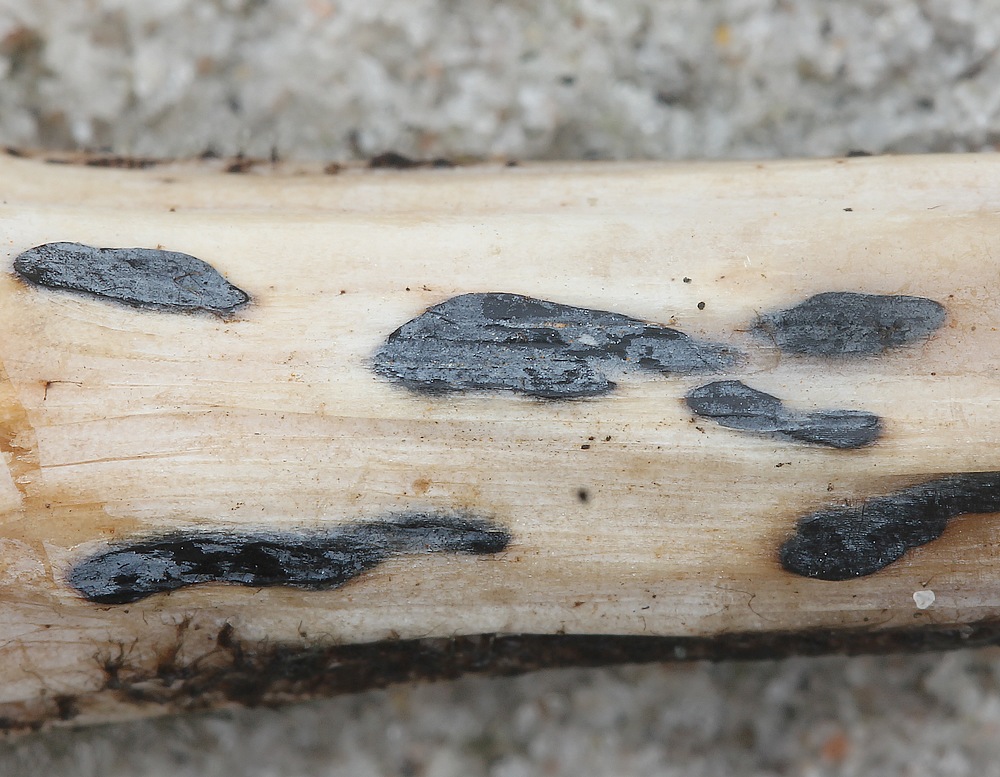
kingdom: Fungi
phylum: Basidiomycota
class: Agaricomycetes
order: Agaricales
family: Typhulaceae
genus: Sclerotium
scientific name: Sclerotium
